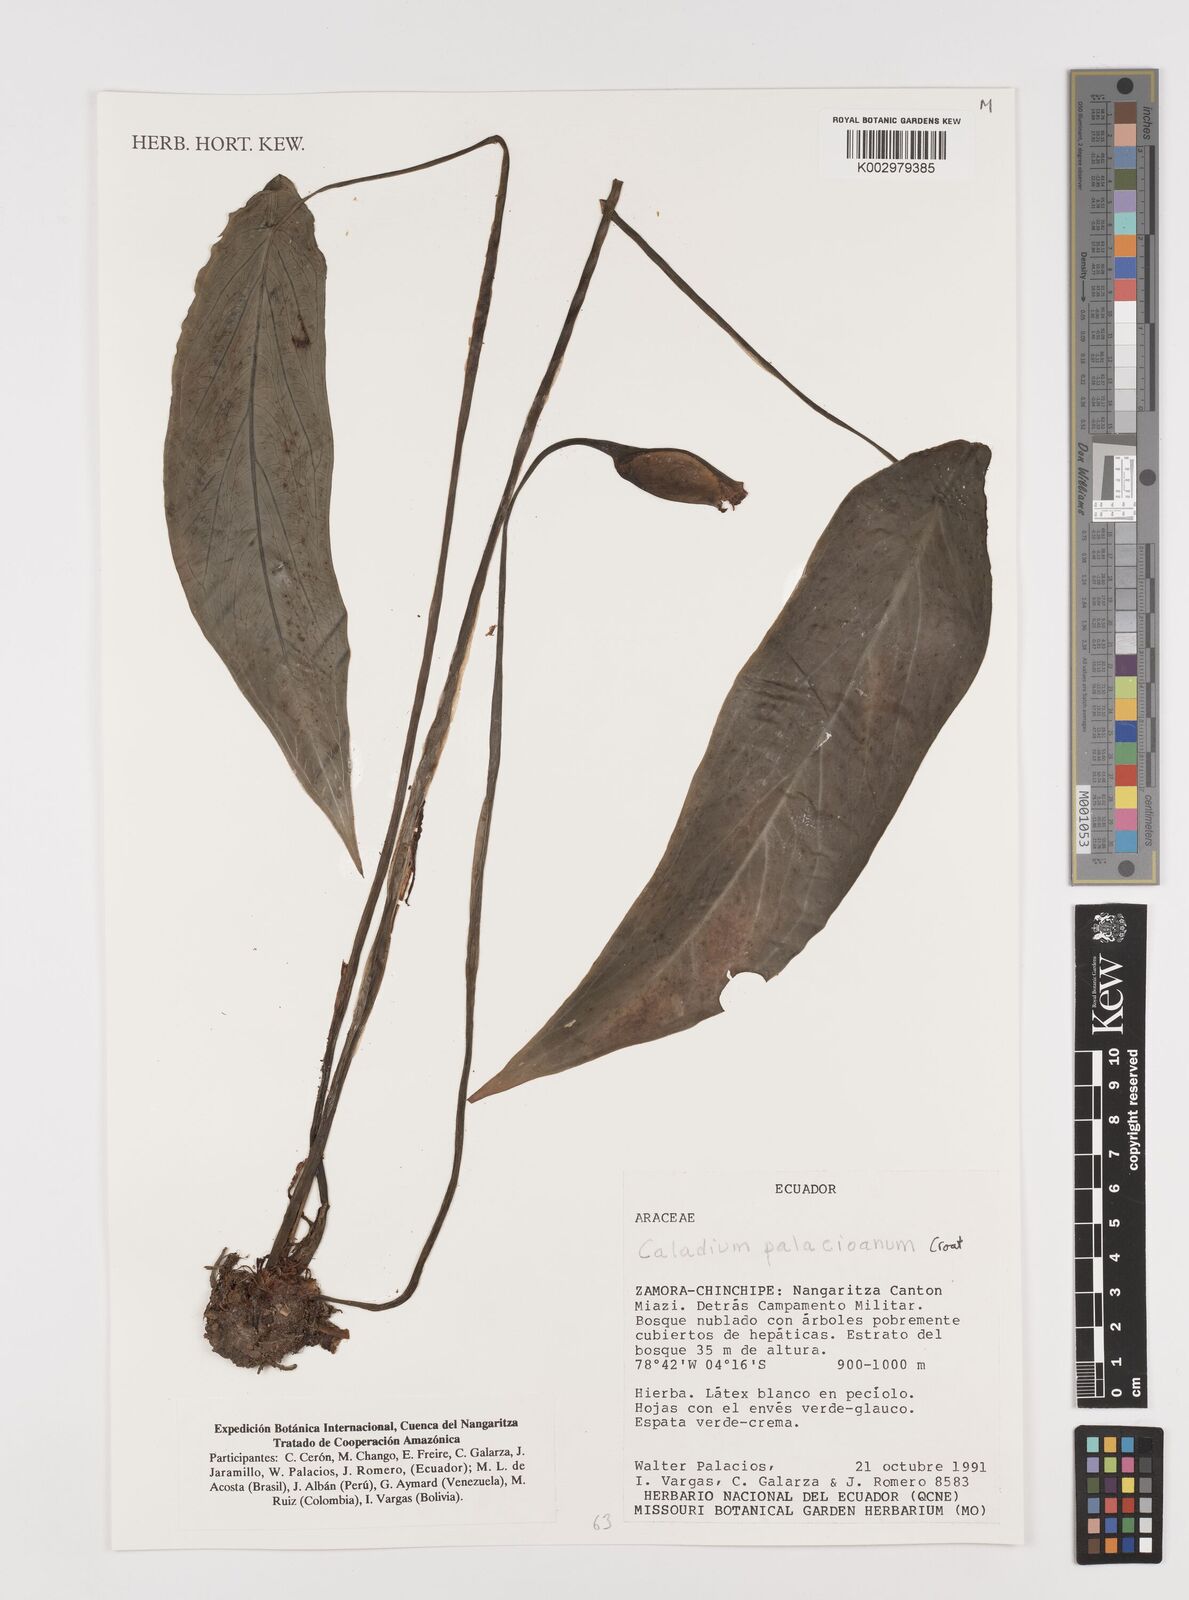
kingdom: Plantae
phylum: Tracheophyta
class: Liliopsida
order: Alismatales
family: Araceae
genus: Caladium
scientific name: Caladium palaciosii
